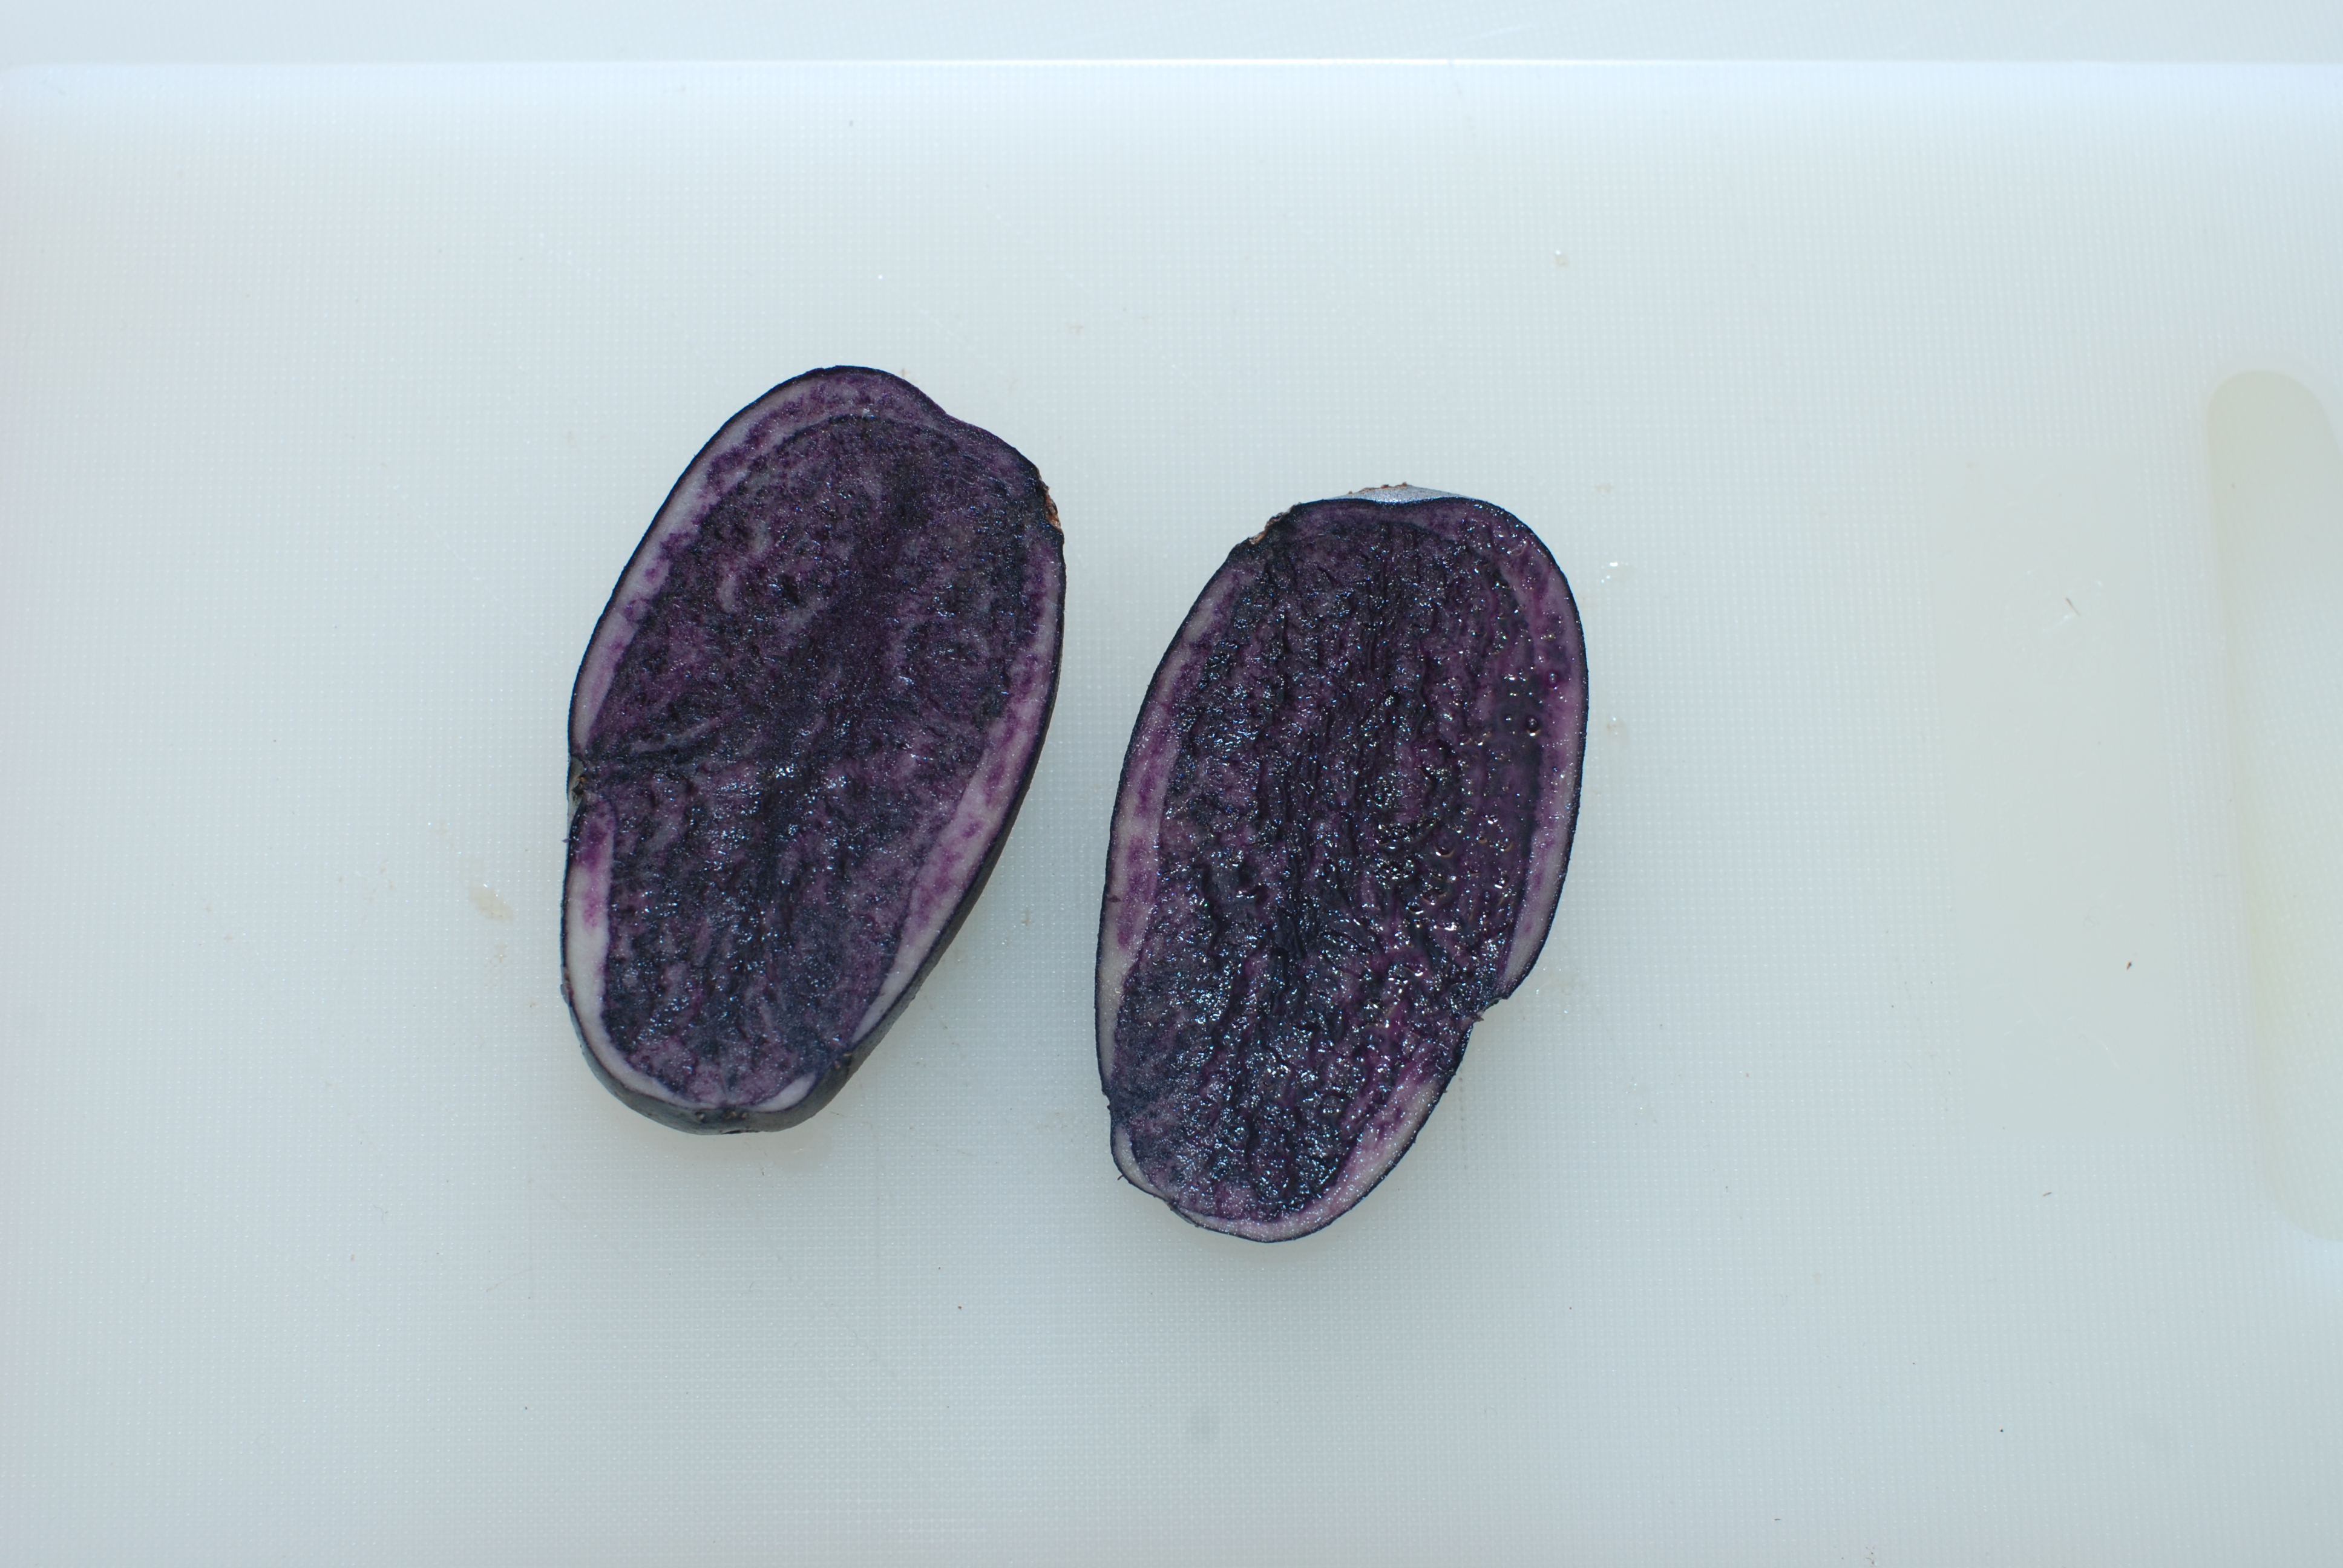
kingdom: Plantae
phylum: Tracheophyta
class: Magnoliopsida
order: Solanales
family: Solanaceae
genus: Solanum
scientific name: Solanum tuberosum
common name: Potato
